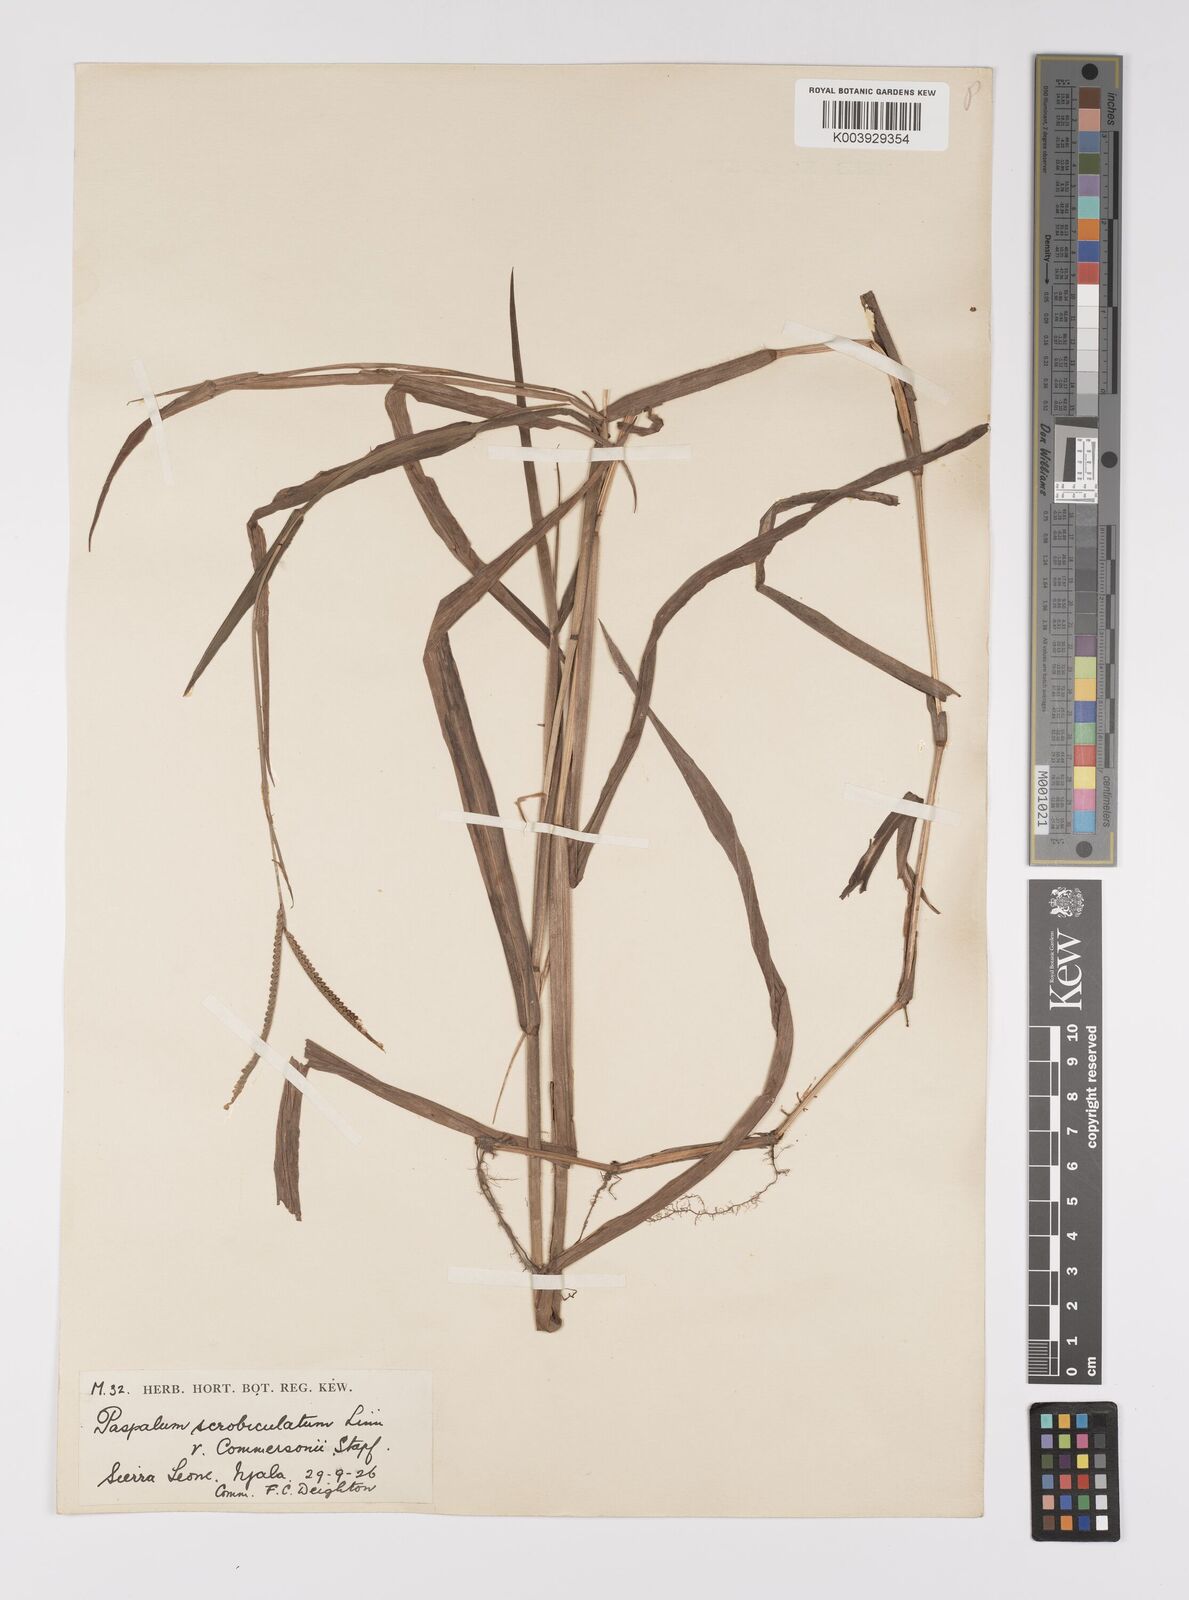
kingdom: Plantae
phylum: Tracheophyta
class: Liliopsida
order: Poales
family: Poaceae
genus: Paspalum
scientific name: Paspalum scrobiculatum
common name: Kodo millet
